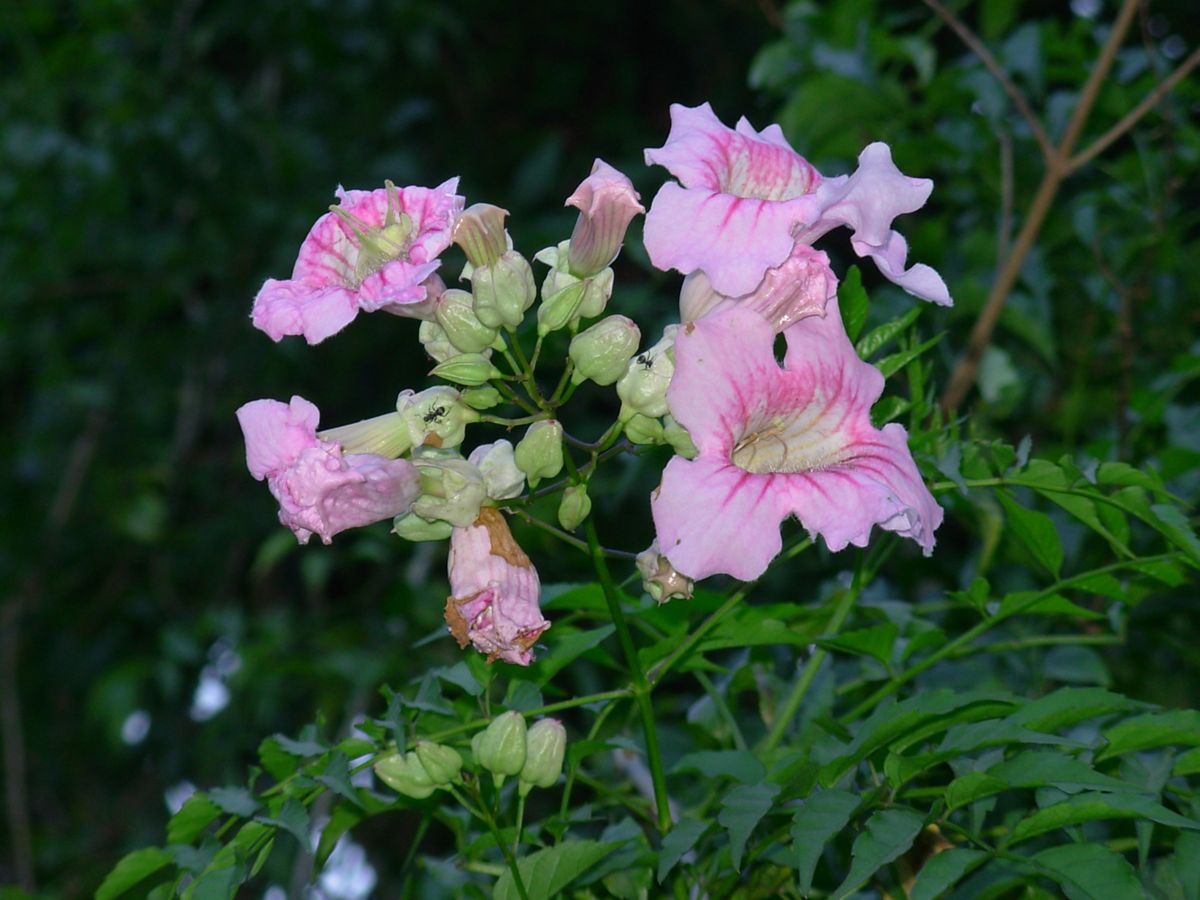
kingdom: Plantae
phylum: Tracheophyta
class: Magnoliopsida
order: Lamiales
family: Bignoniaceae
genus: Podranea
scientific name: Podranea ricasoliana
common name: Zimbabwe creeper
